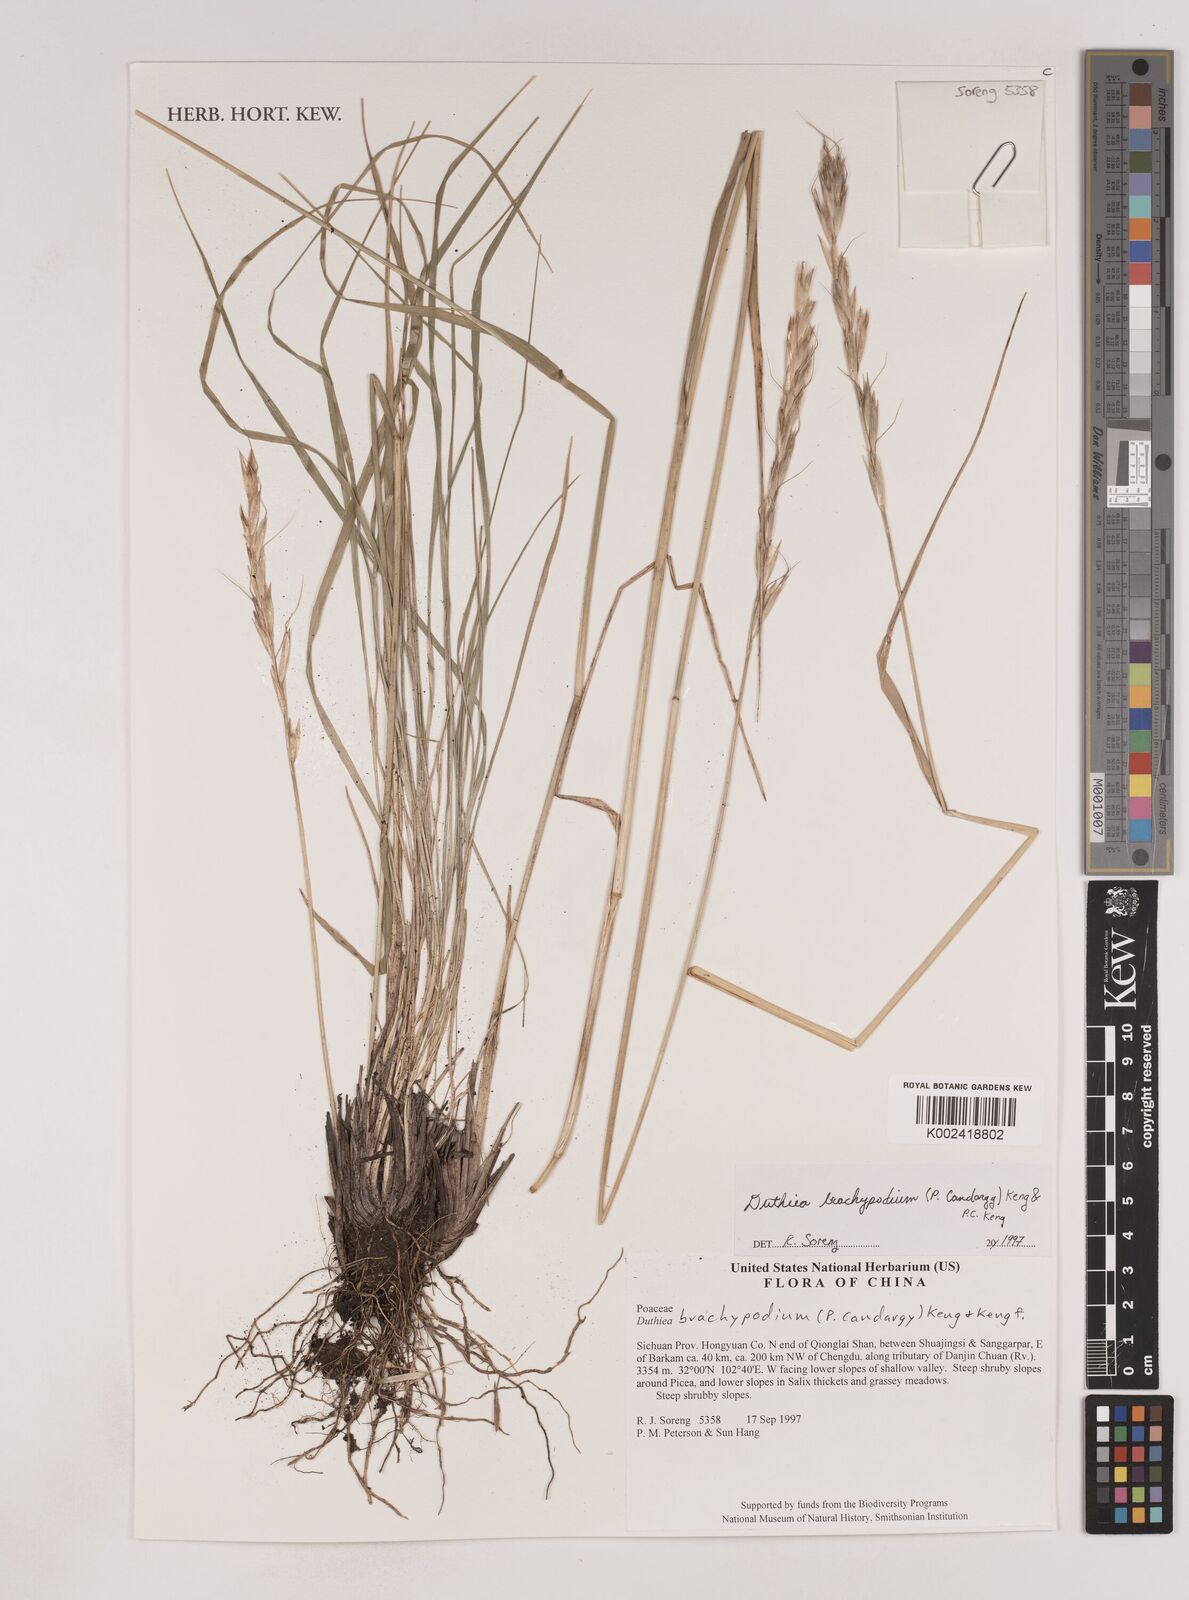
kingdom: Plantae
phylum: Tracheophyta
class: Liliopsida
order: Poales
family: Poaceae
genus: Duthiea
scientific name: Duthiea brachypodium
